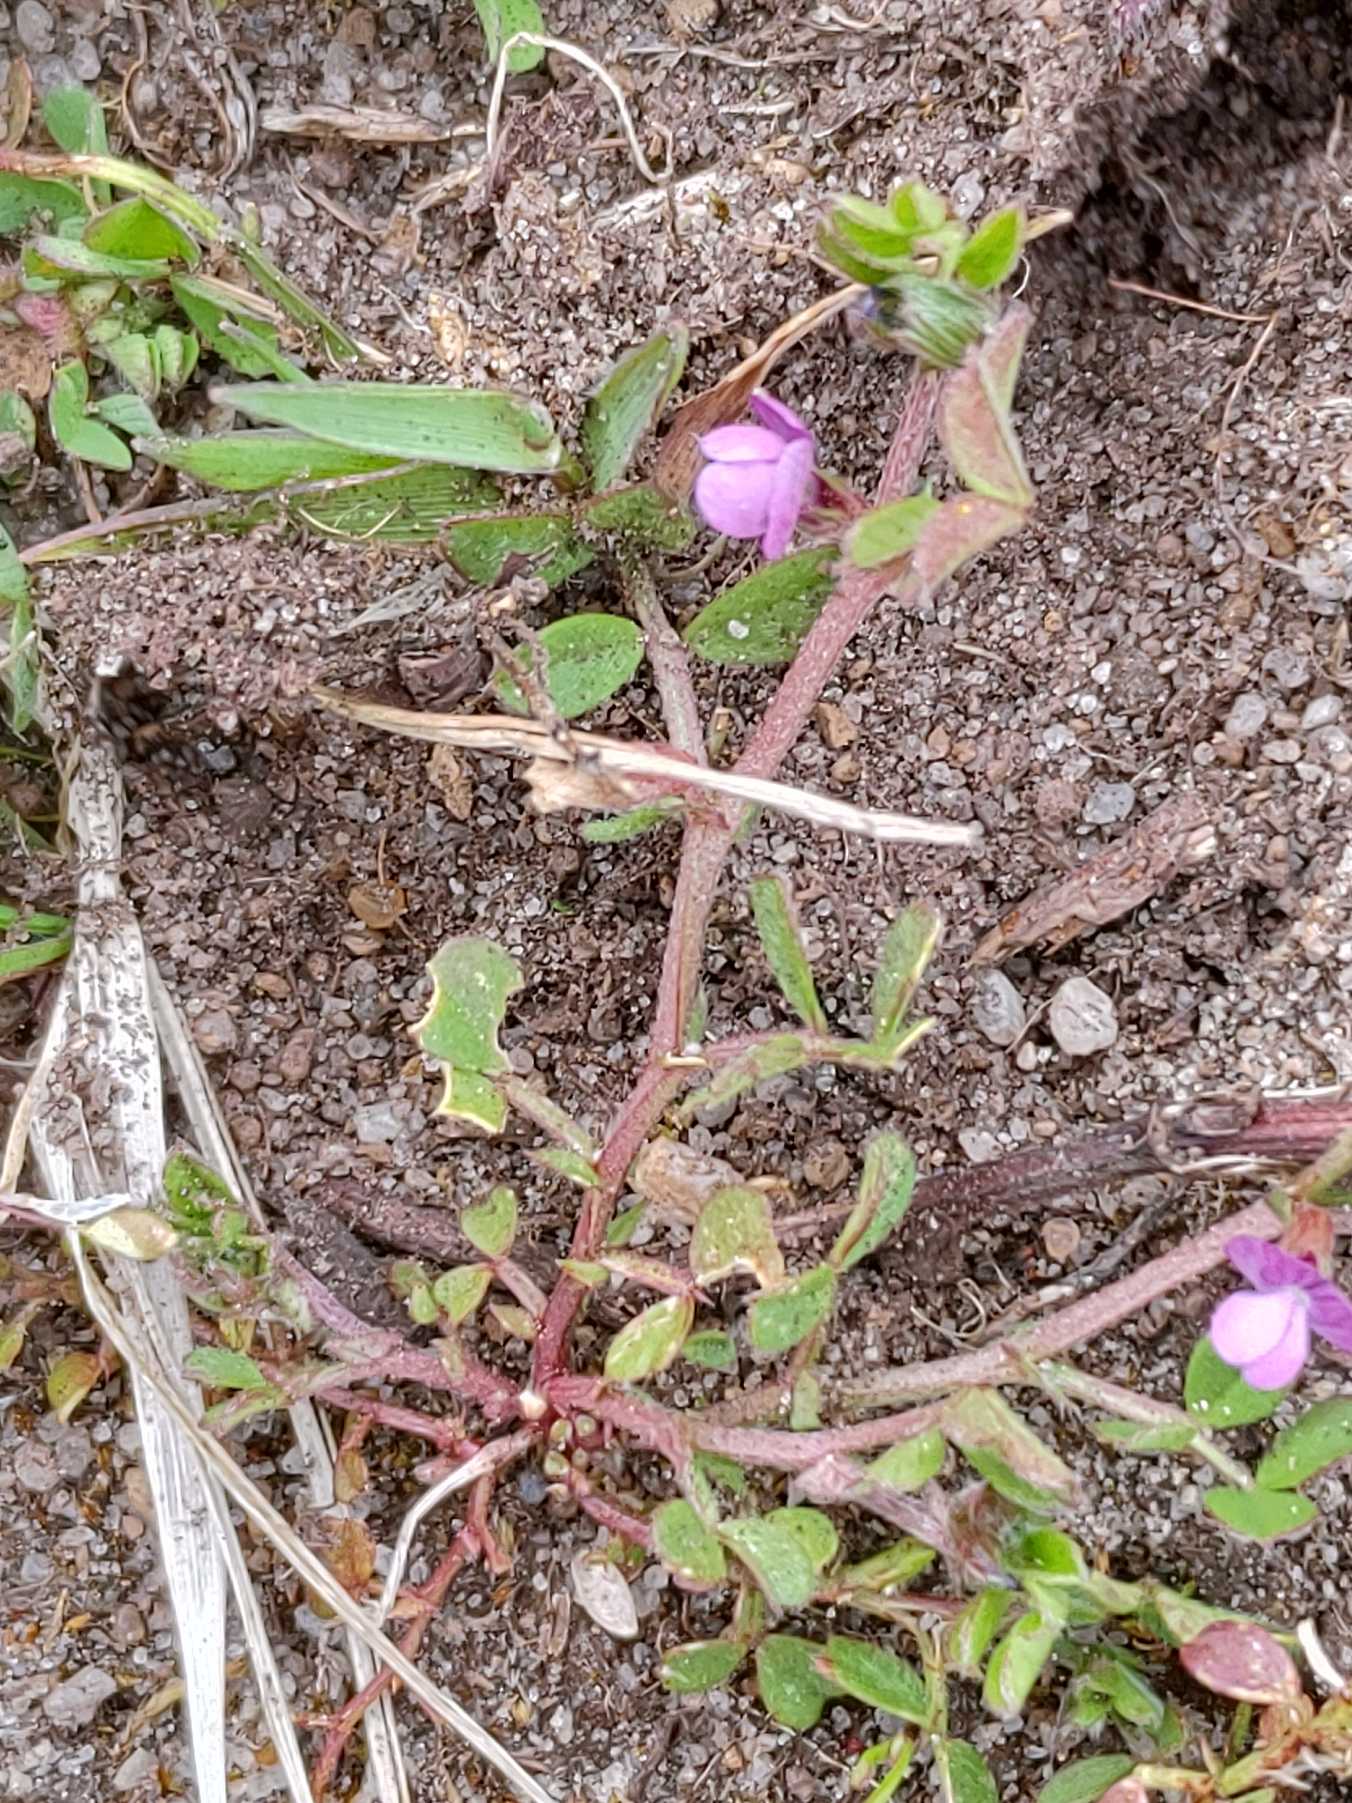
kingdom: Plantae
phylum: Tracheophyta
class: Magnoliopsida
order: Fabales
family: Fabaceae
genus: Vicia
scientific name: Vicia lathyroides
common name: Vår-vikke
